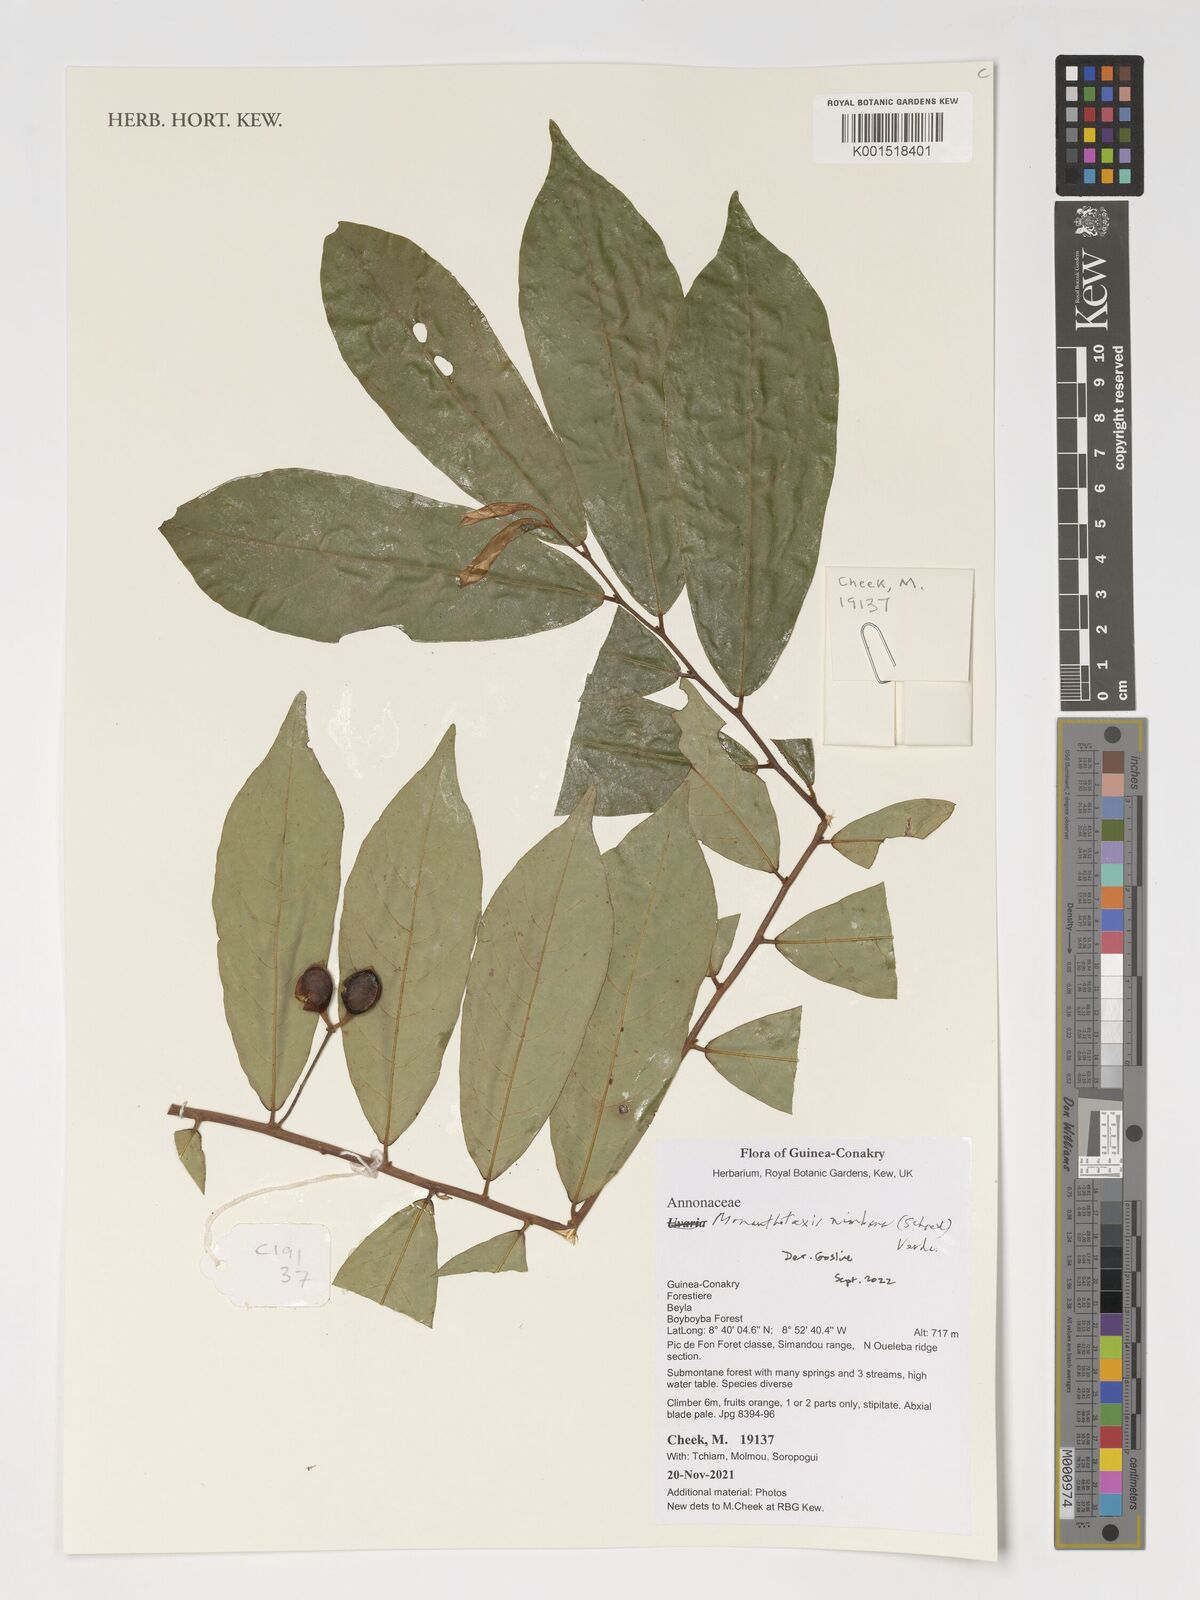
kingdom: Plantae
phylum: Tracheophyta
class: Magnoliopsida
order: Magnoliales
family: Annonaceae
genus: Monanthotaxis
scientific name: Monanthotaxis nimbana
